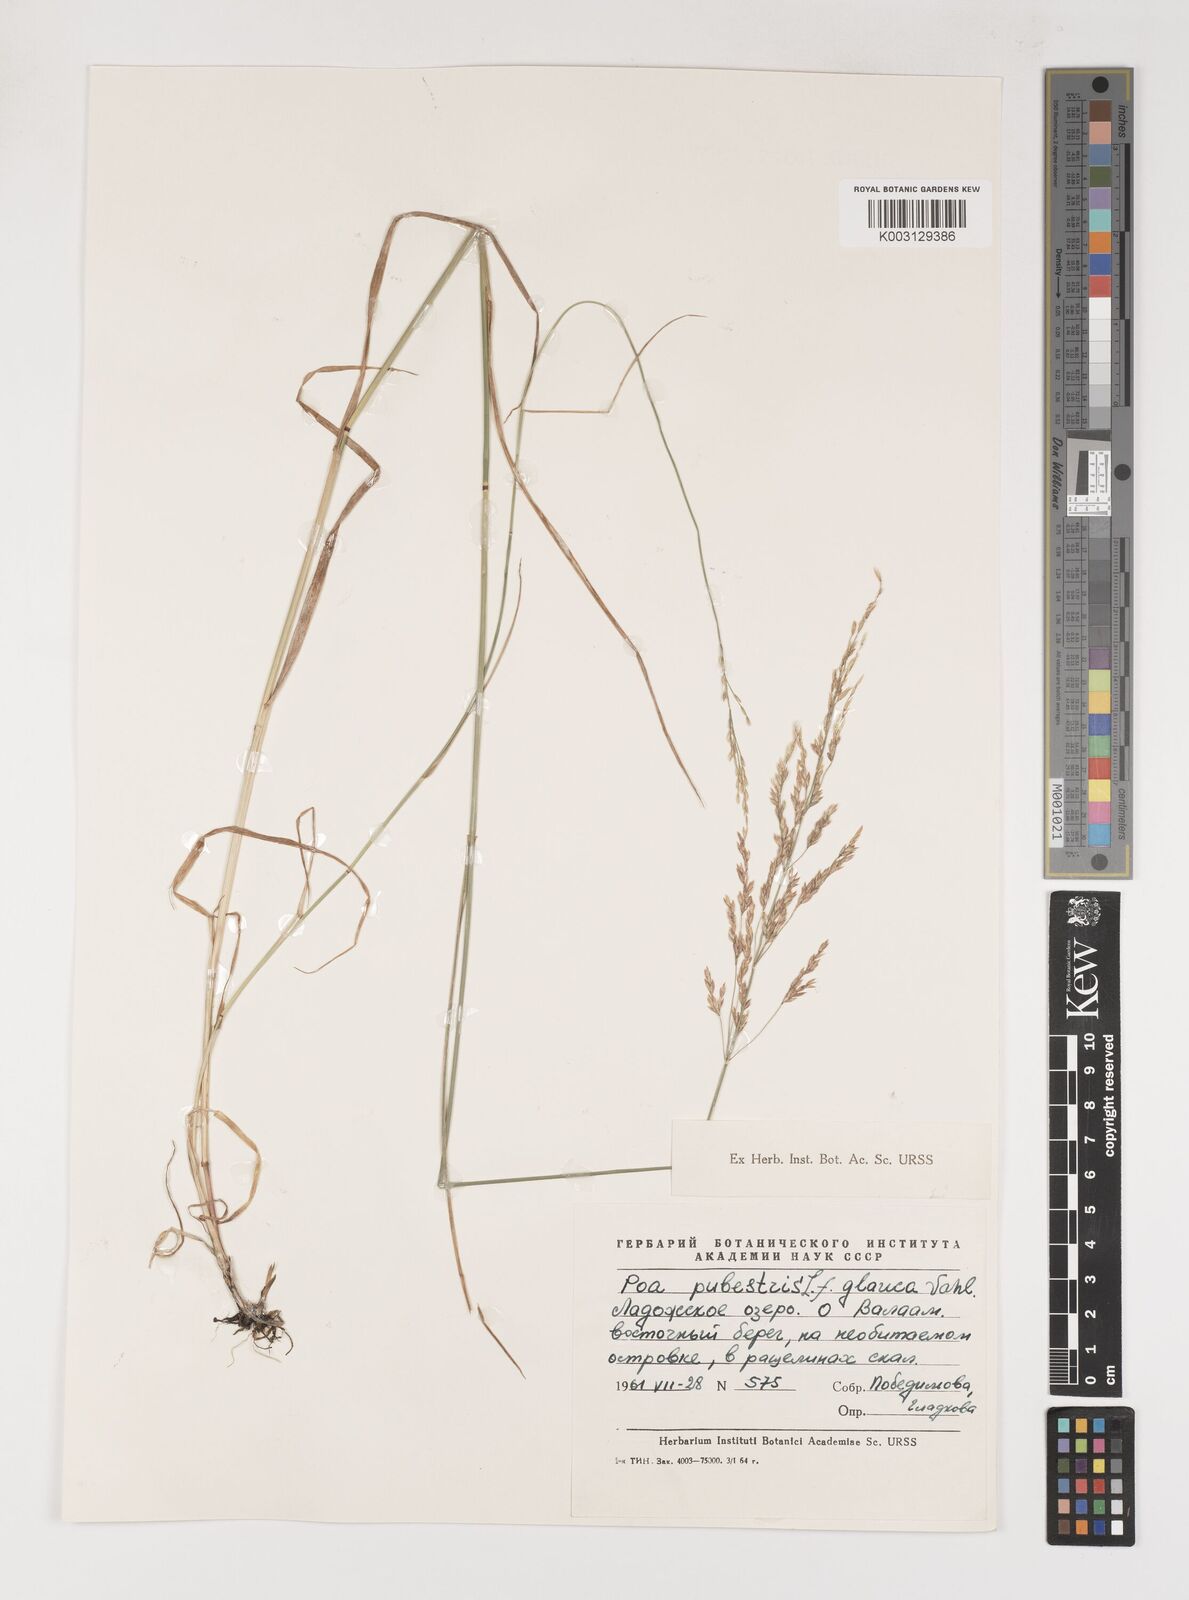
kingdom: Plantae
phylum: Tracheophyta
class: Liliopsida
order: Poales
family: Poaceae
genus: Poa
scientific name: Poa palustris
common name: Swamp meadow-grass
